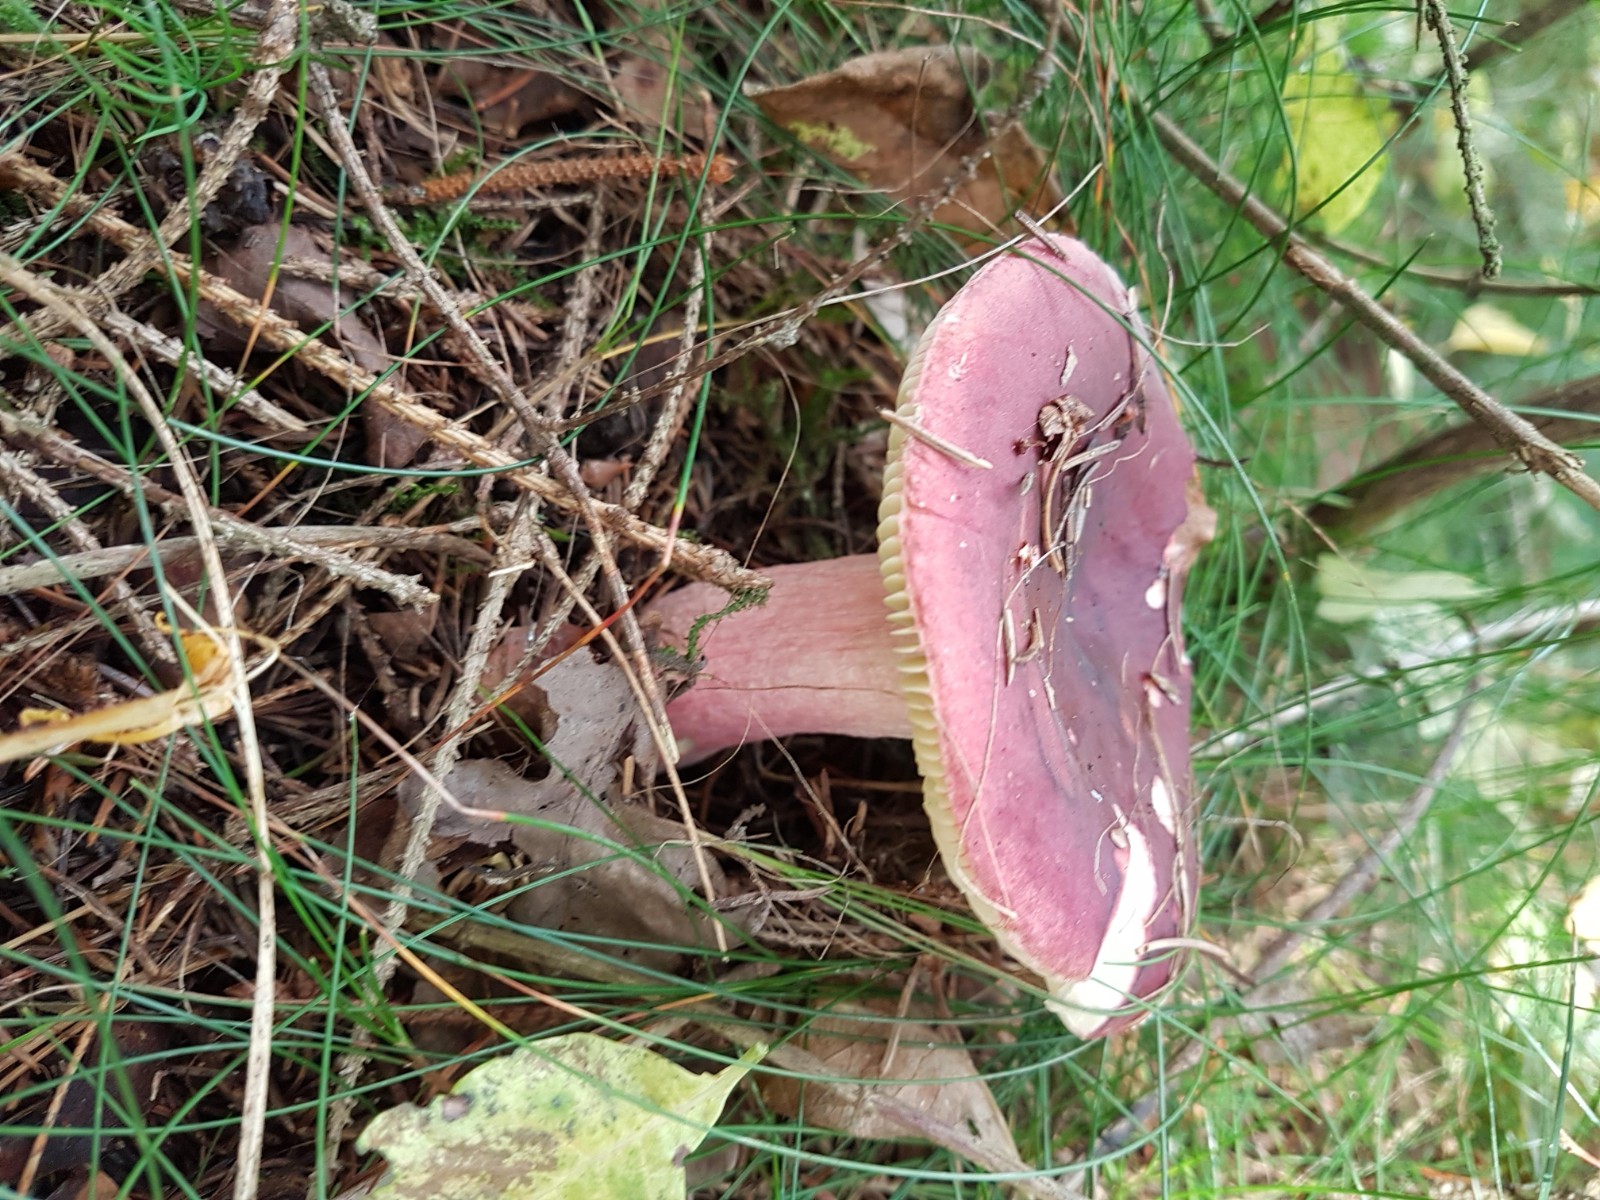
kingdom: Fungi
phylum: Basidiomycota
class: Agaricomycetes
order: Russulales
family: Russulaceae
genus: Russula
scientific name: Russula
